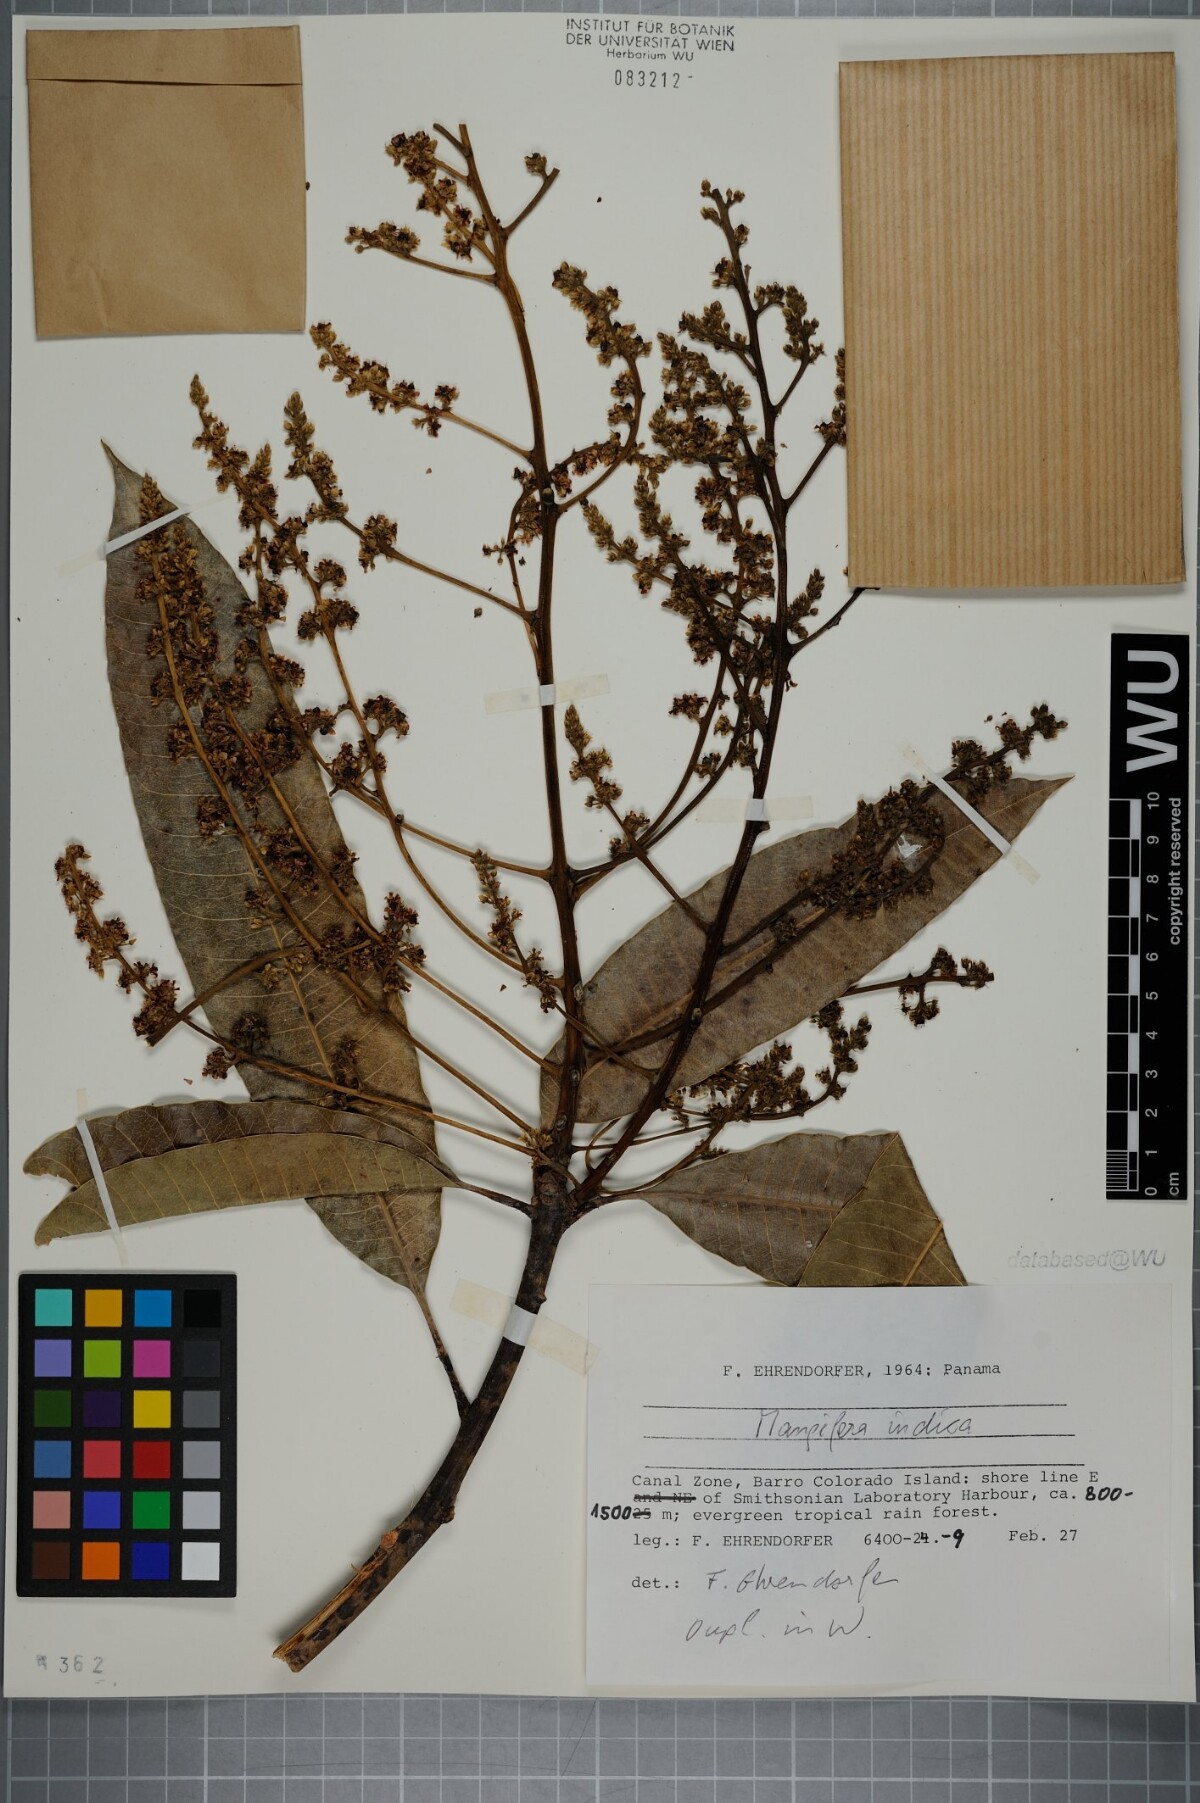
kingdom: Plantae
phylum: Tracheophyta
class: Magnoliopsida
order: Sapindales
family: Anacardiaceae
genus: Mangifera
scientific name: Mangifera indica
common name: Mango
